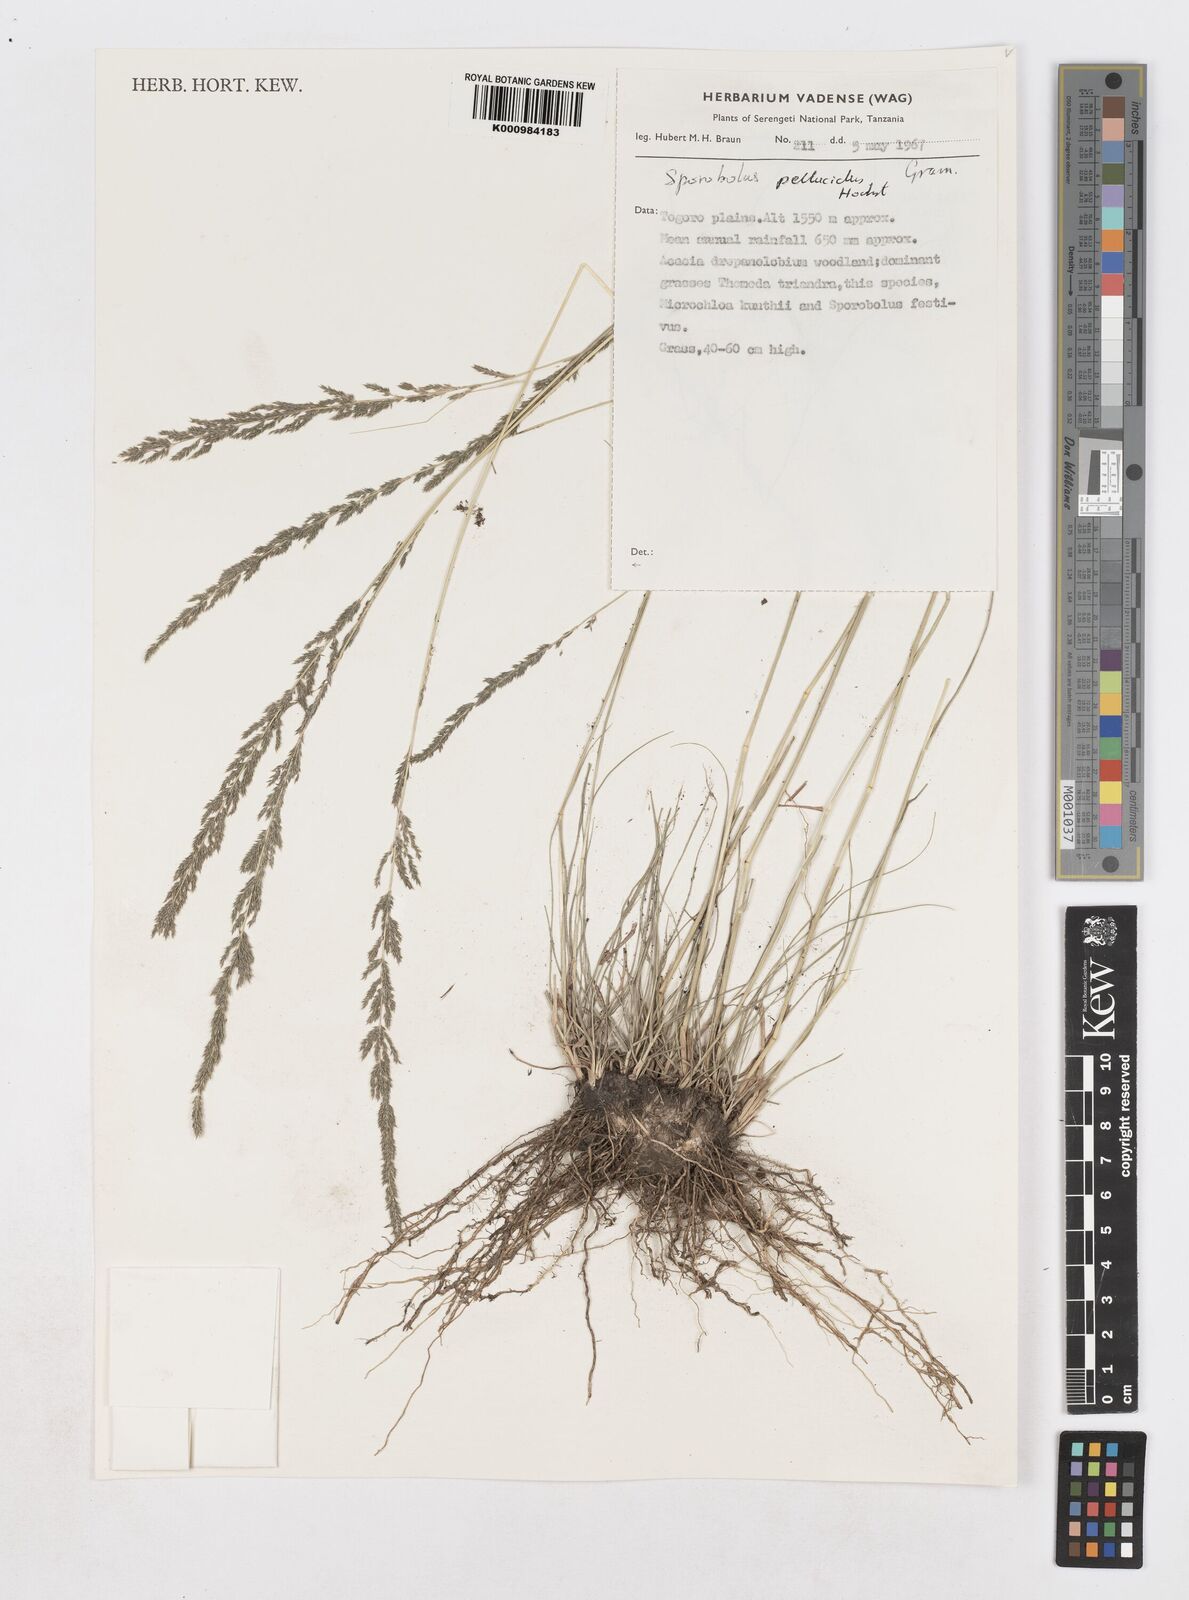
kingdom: Plantae
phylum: Tracheophyta
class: Liliopsida
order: Poales
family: Poaceae
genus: Sporobolus
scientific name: Sporobolus pellucidus
